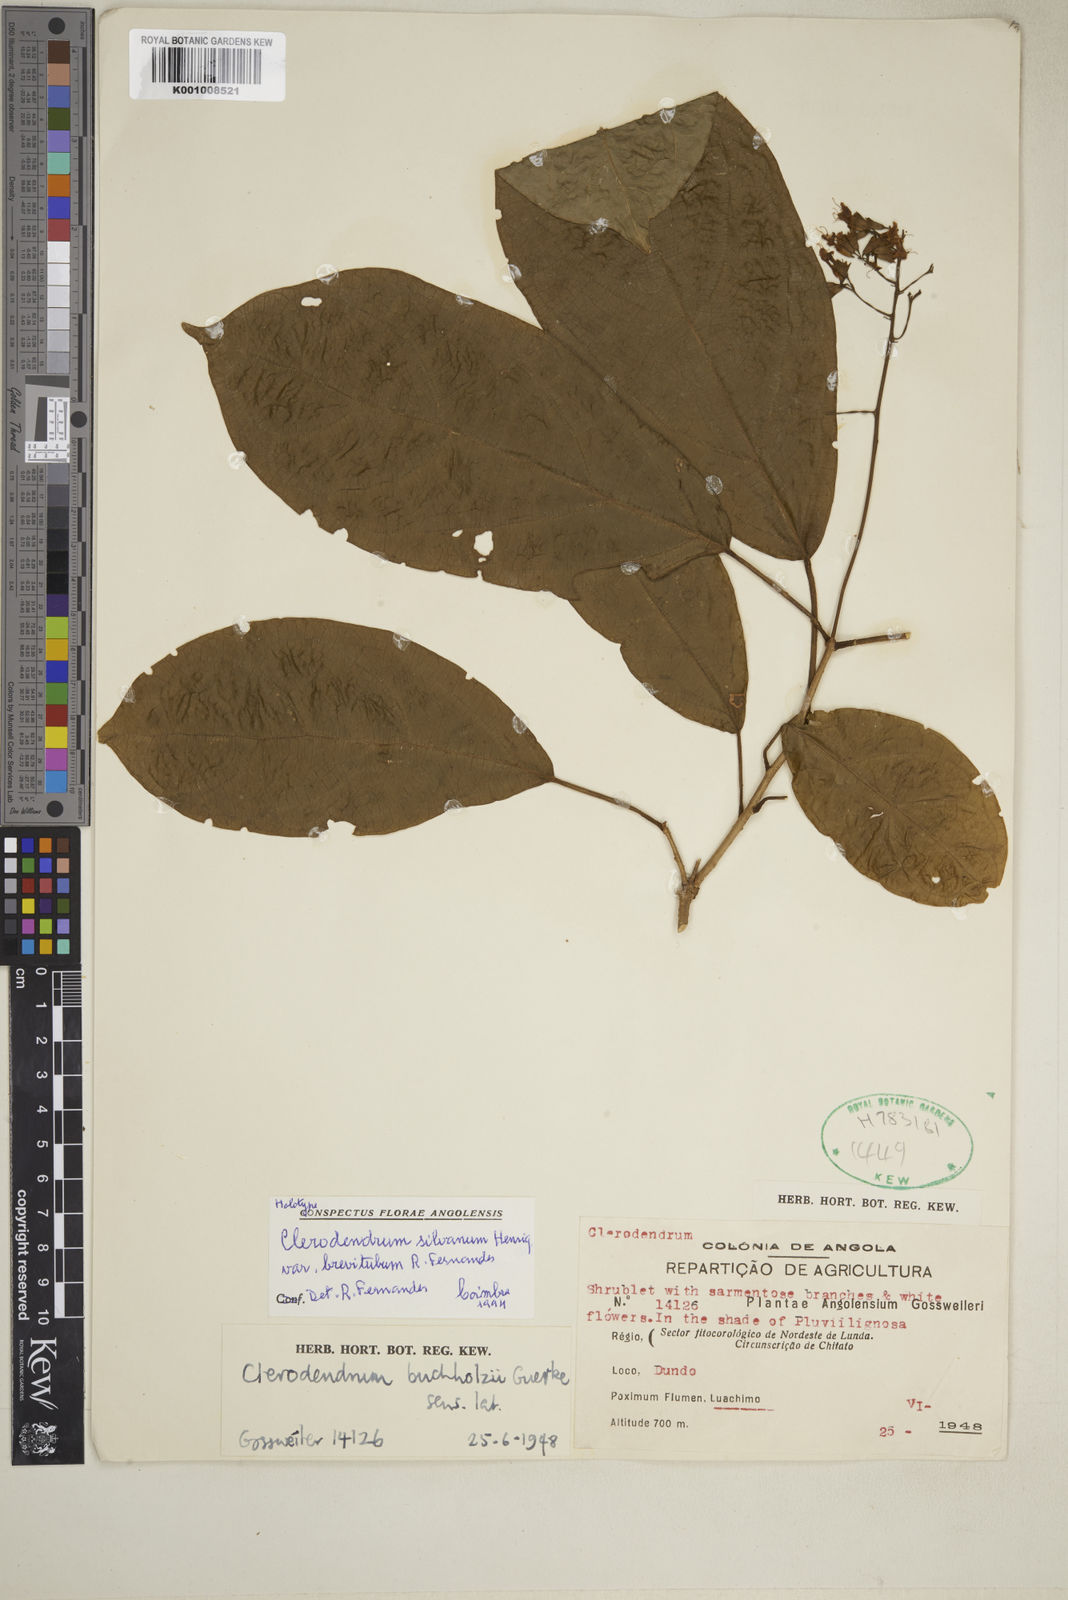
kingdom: Plantae
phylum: Tracheophyta
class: Magnoliopsida
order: Lamiales
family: Lamiaceae
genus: Clerodendrum
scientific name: Clerodendrum silvanum
